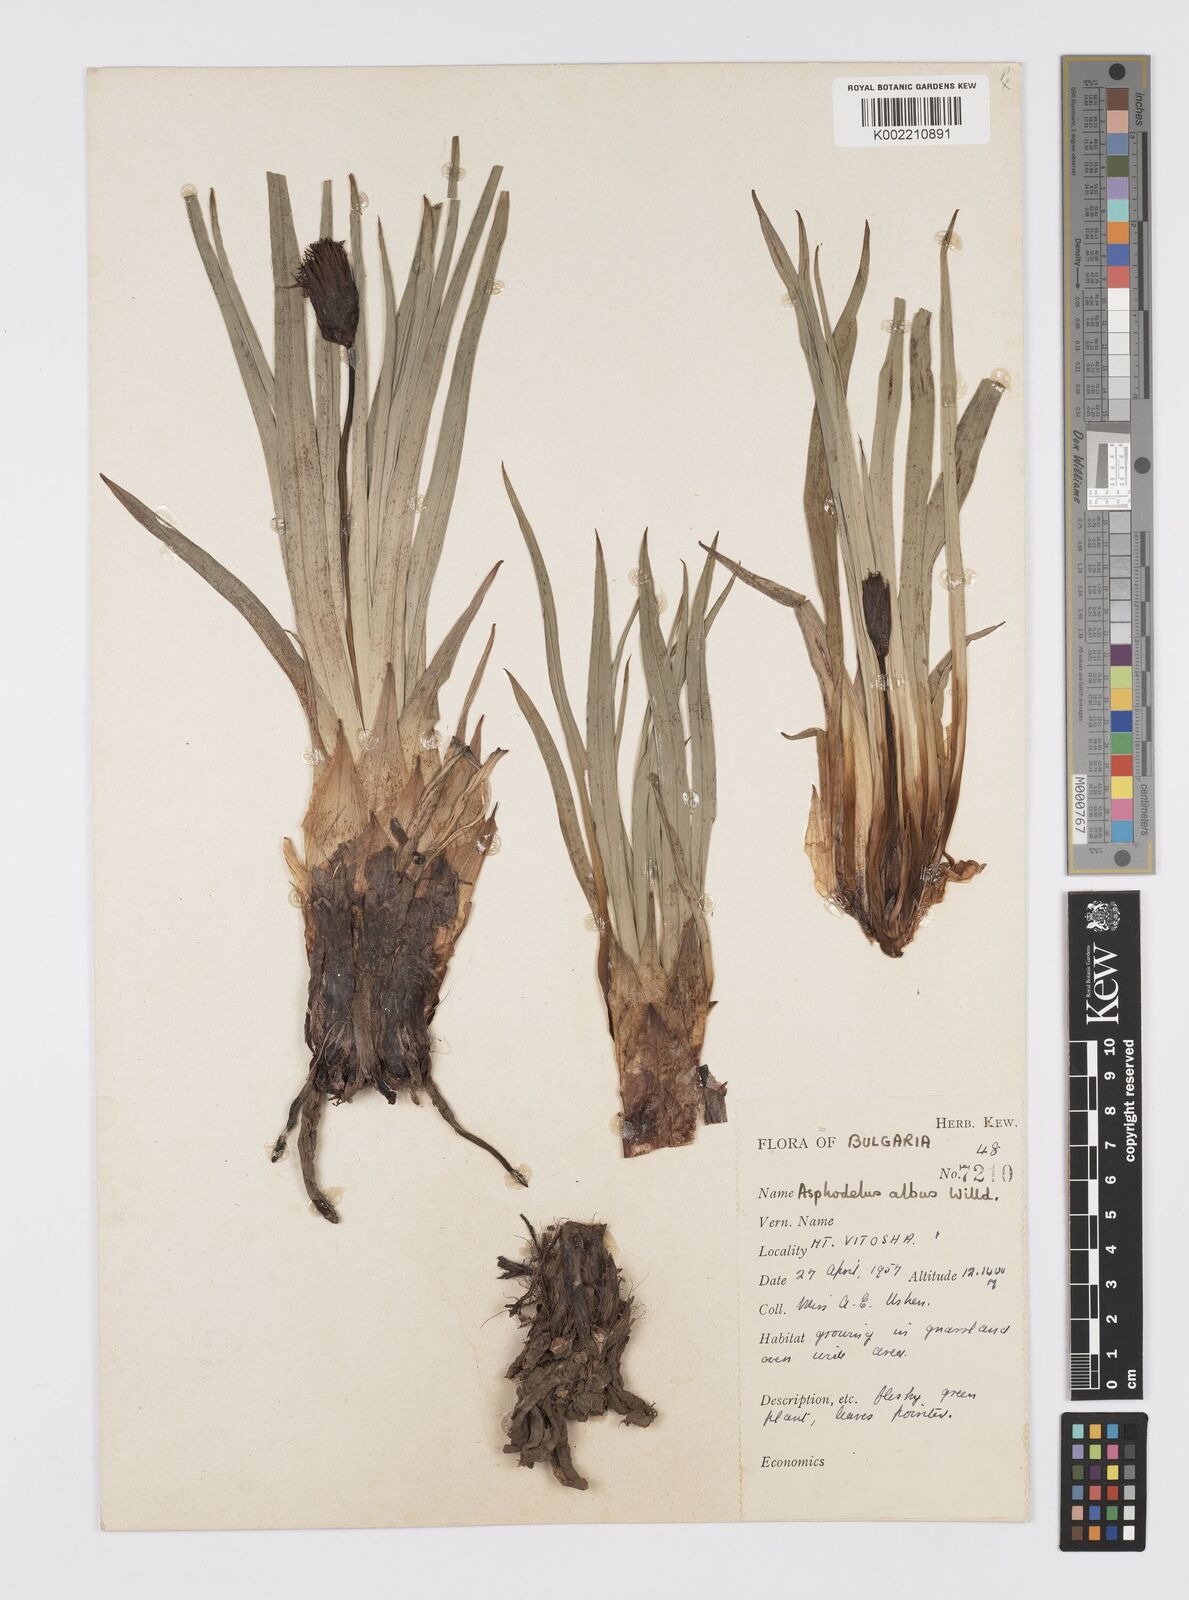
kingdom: Plantae
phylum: Tracheophyta
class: Liliopsida
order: Asparagales
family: Asphodelaceae
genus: Asphodelus
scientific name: Asphodelus albus
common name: White asphodel
